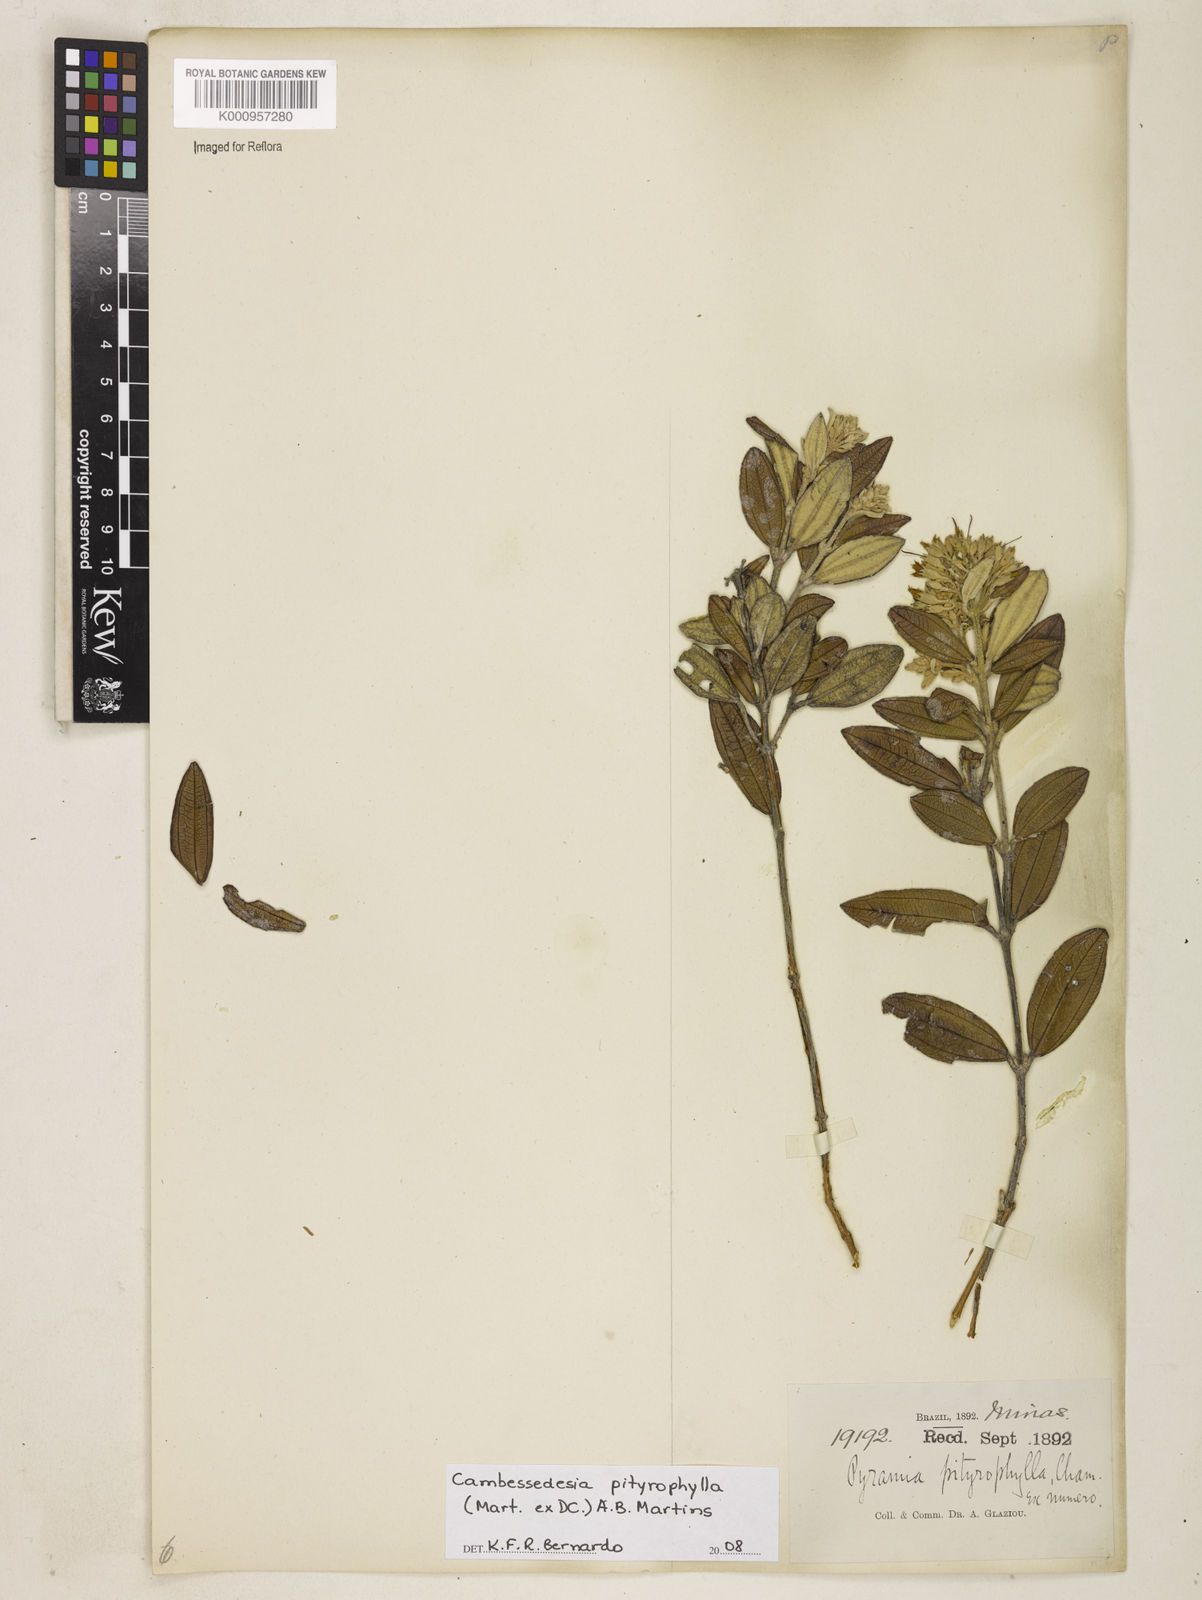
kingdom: Plantae
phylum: Tracheophyta
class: Magnoliopsida
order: Myrtales
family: Melastomataceae
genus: Cambessedesia
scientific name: Cambessedesia pityrophylla
